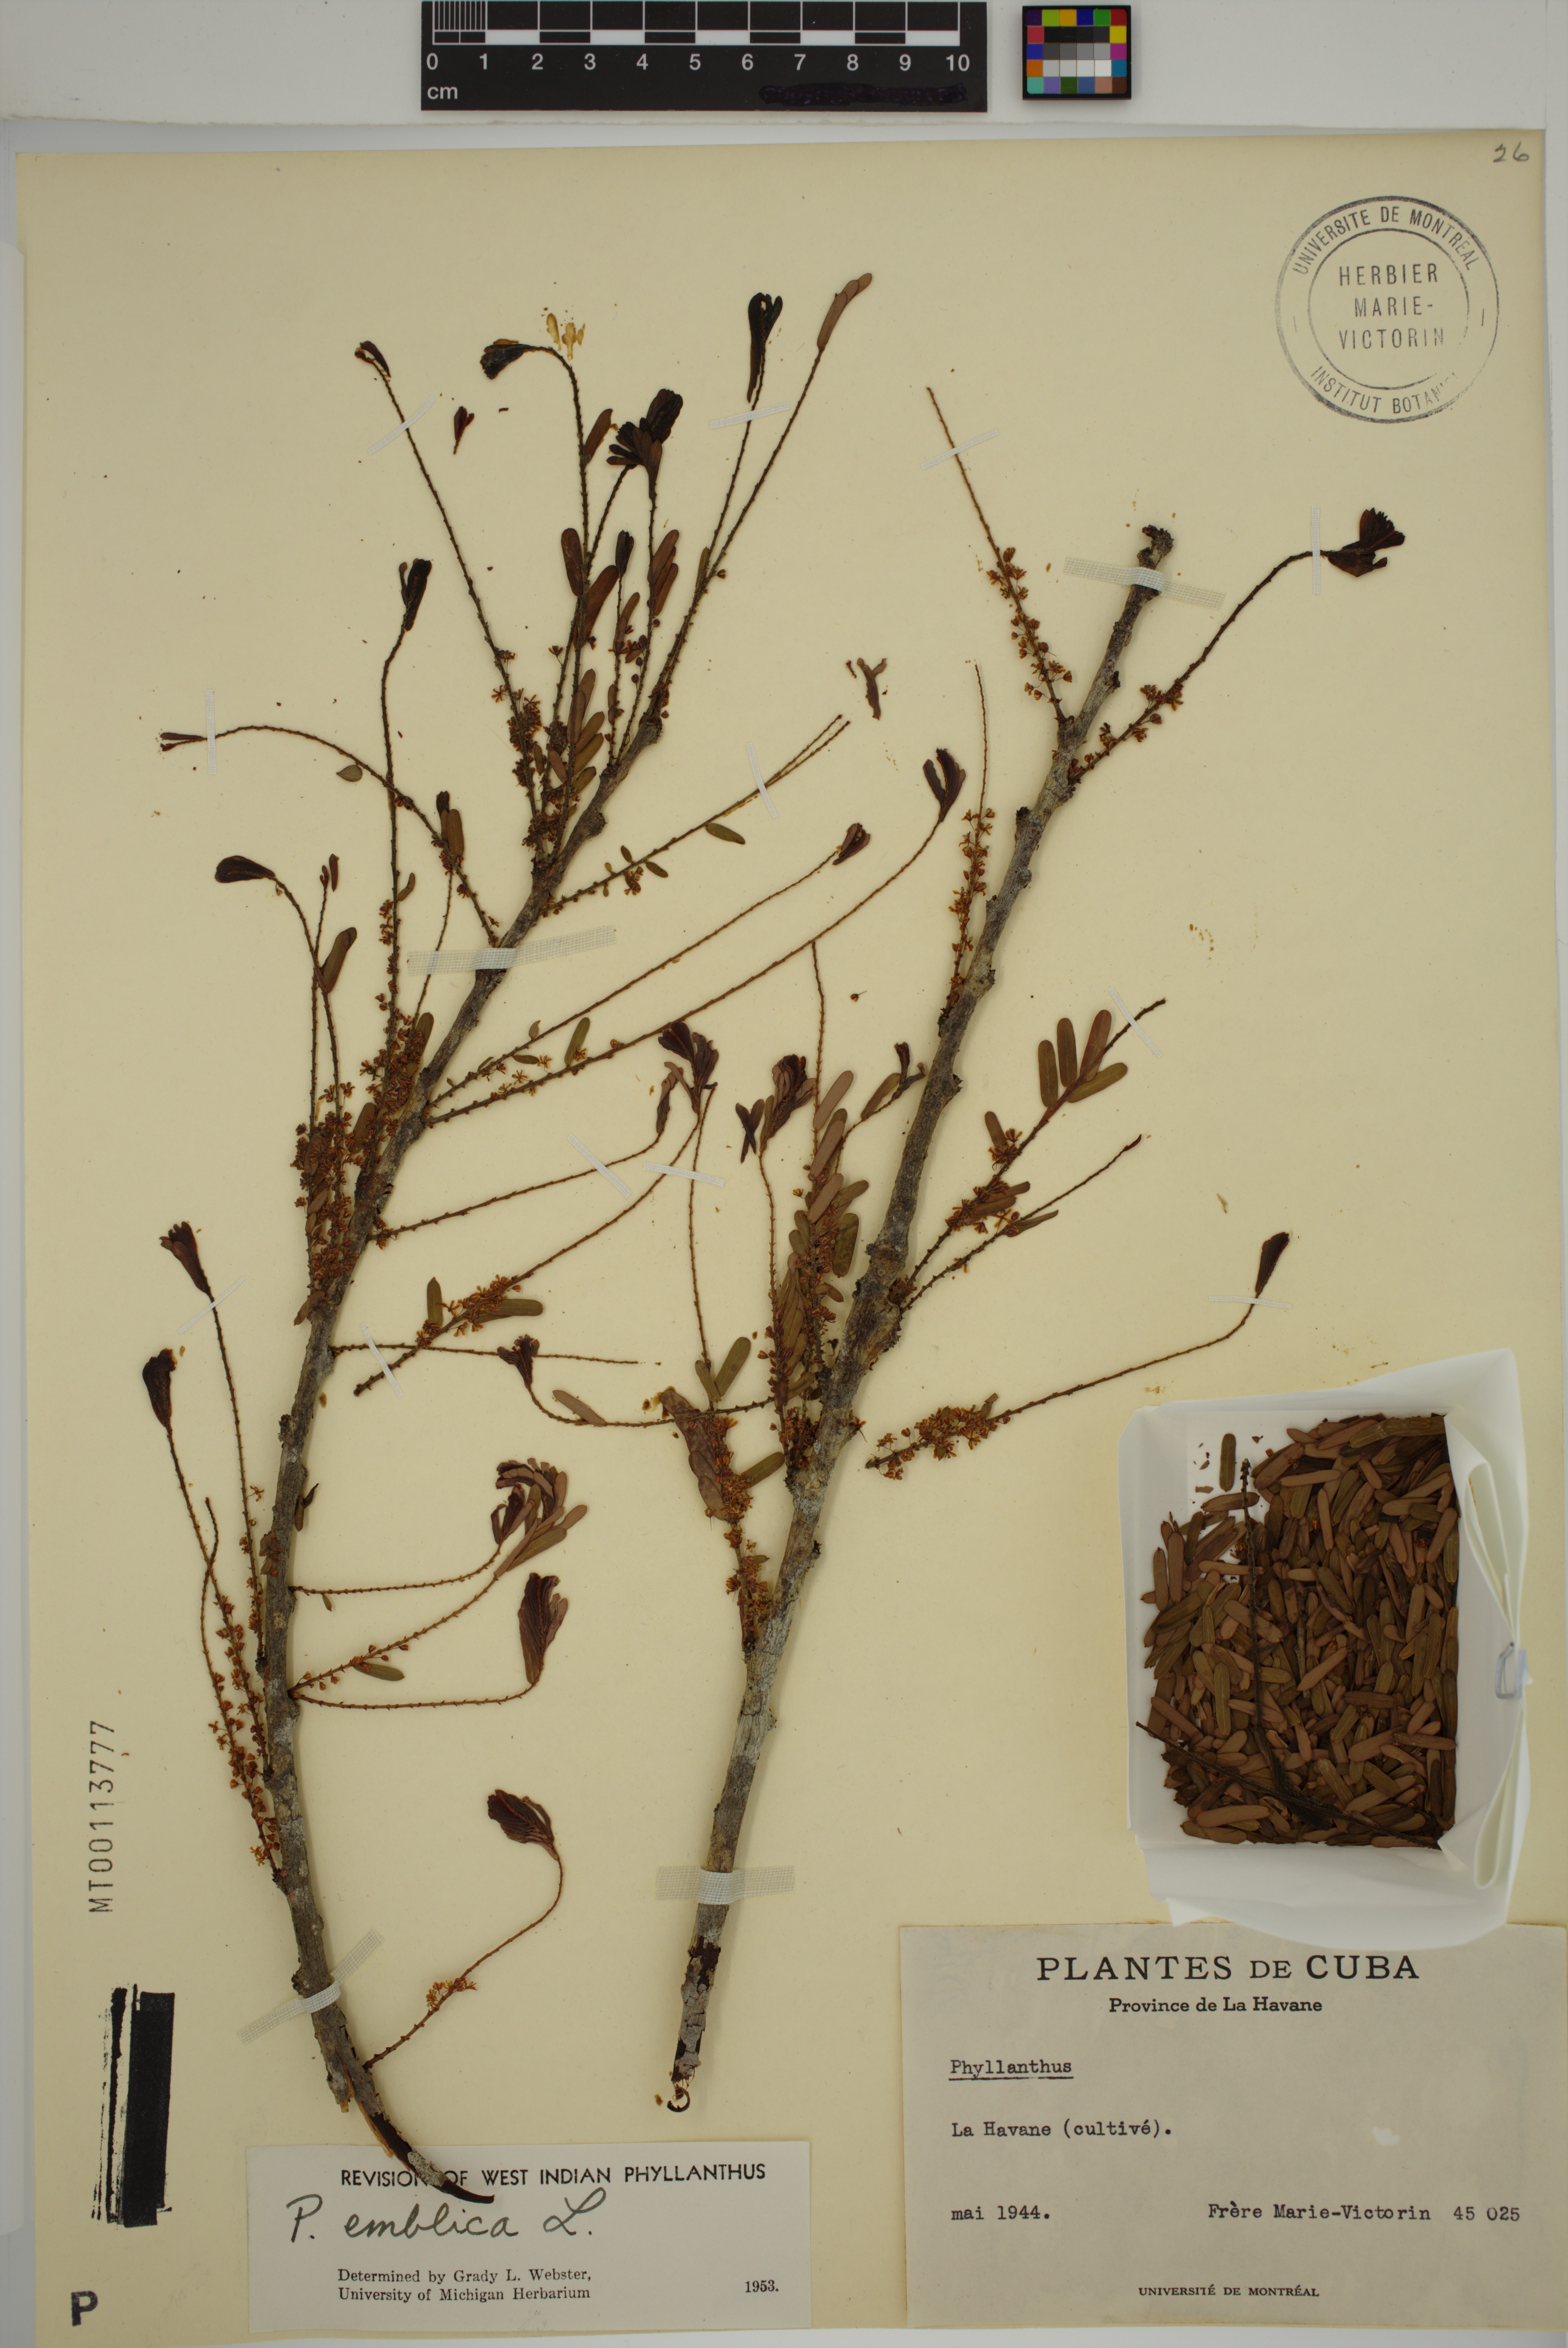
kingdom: Plantae
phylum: Tracheophyta
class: Magnoliopsida
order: Malpighiales
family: Phyllanthaceae
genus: Phyllanthus
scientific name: Phyllanthus emblica
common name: Indian gooseberry
